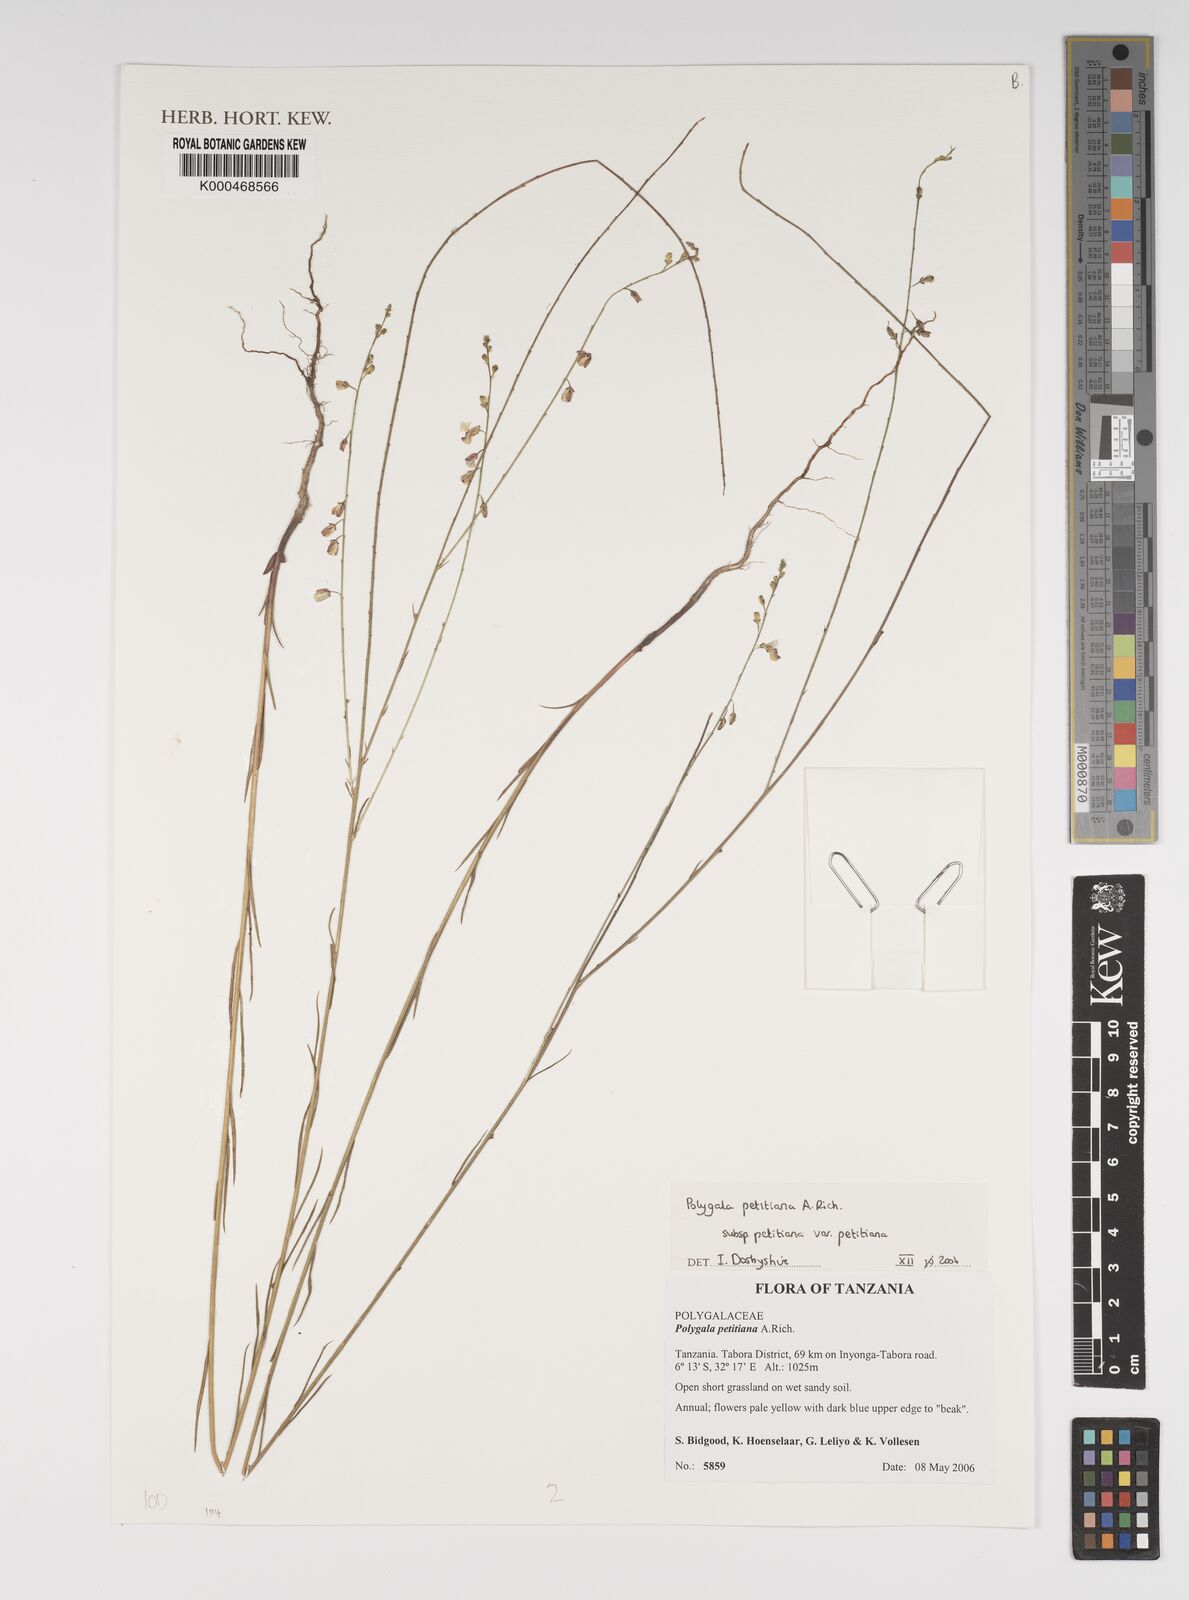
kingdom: Plantae
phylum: Tracheophyta
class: Magnoliopsida
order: Fabales
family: Polygalaceae
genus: Polygala
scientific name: Polygala petitiana
